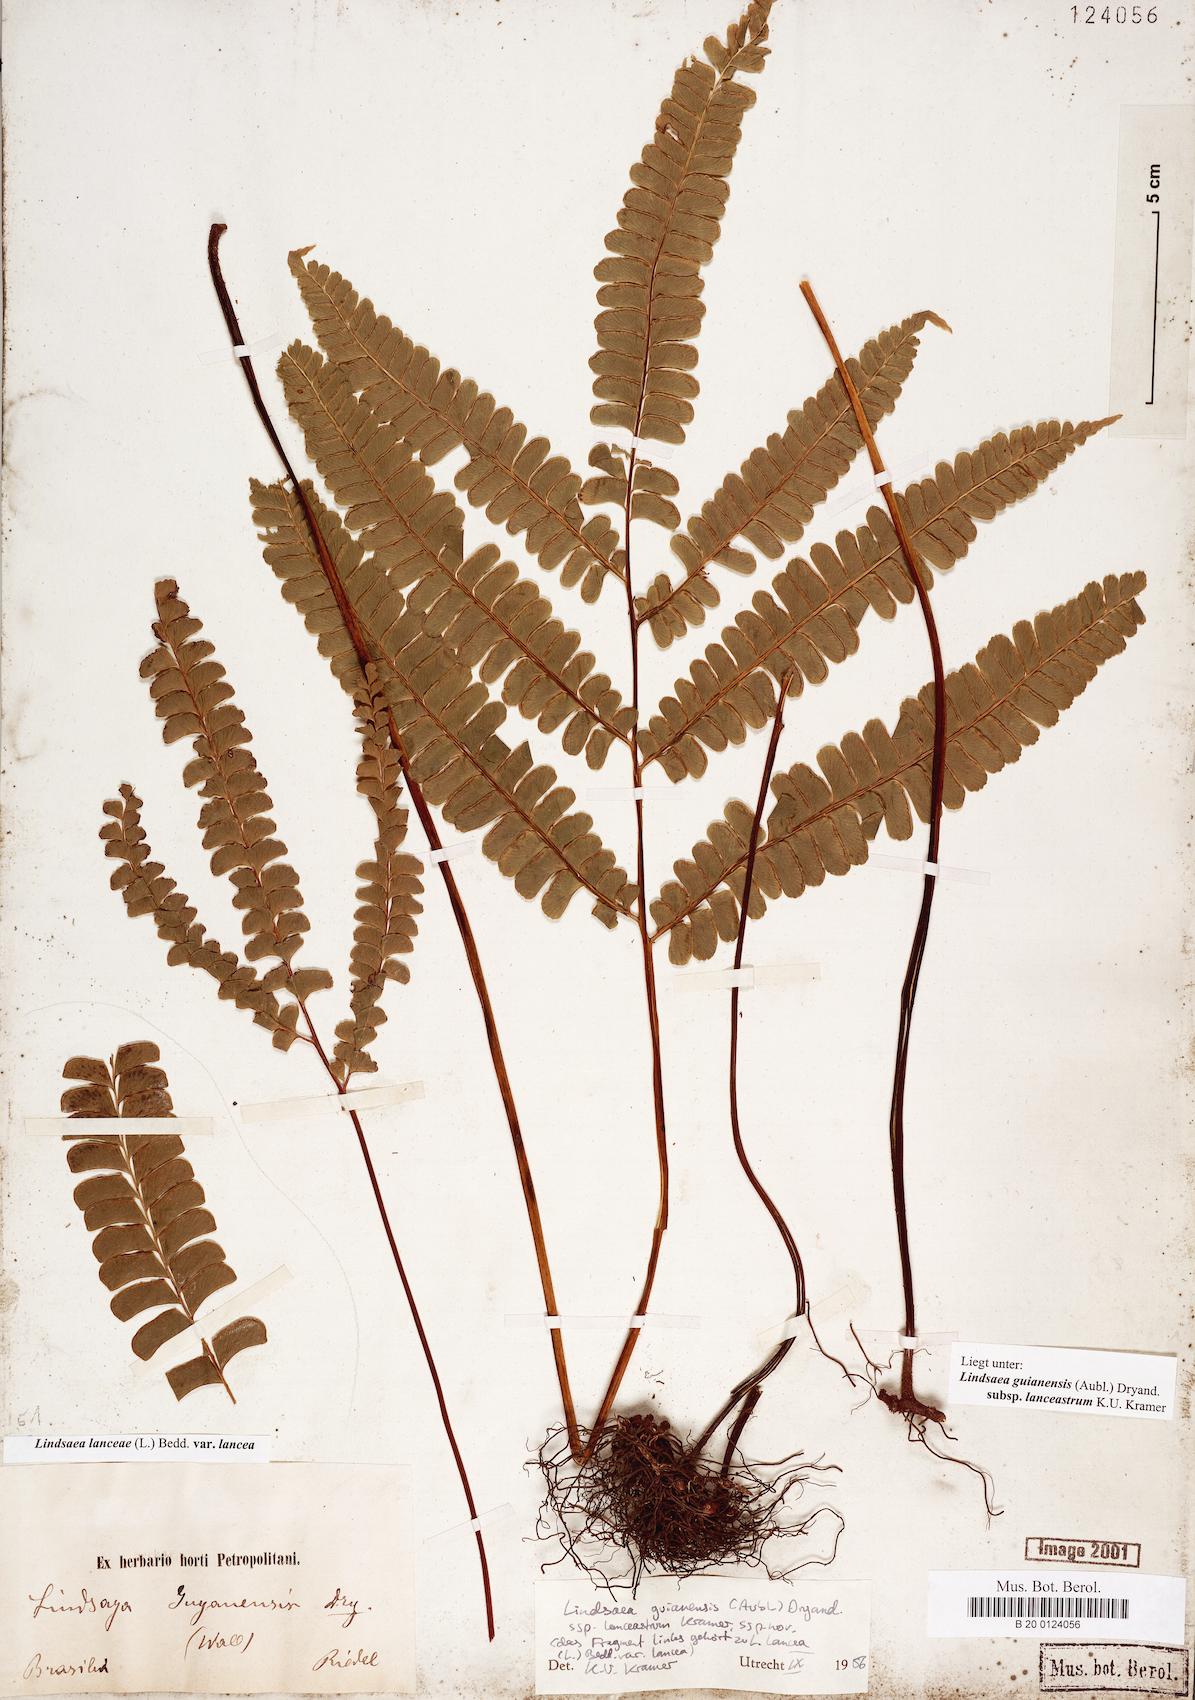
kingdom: Plantae
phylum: Tracheophyta
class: Polypodiopsida
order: Polypodiales
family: Lindsaeaceae
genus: Lindsaea
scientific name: Lindsaea guianensis
